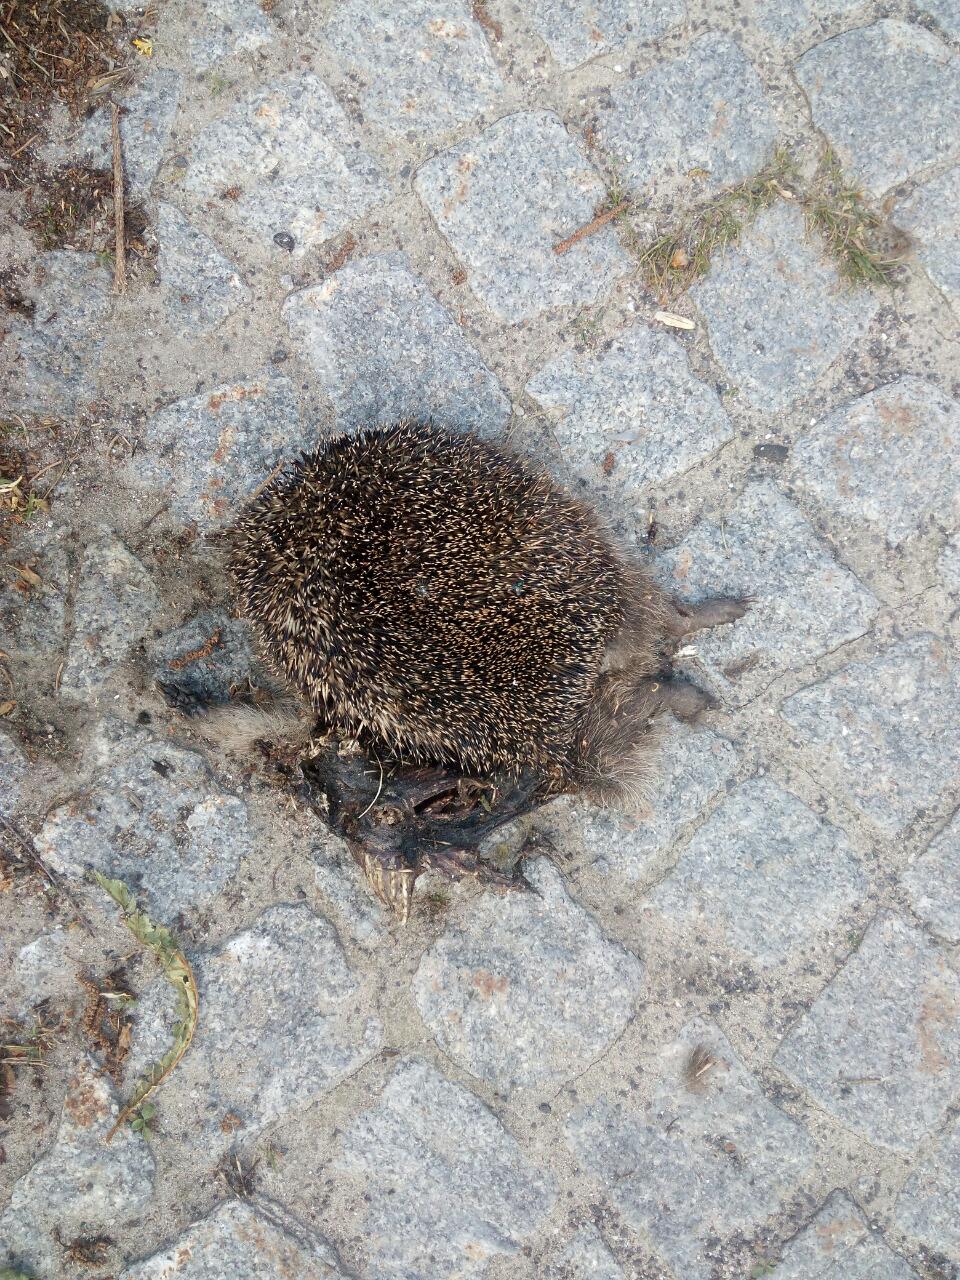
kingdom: Animalia
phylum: Chordata
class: Mammalia
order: Erinaceomorpha
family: Erinaceidae
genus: Erinaceus
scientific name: Erinaceus
